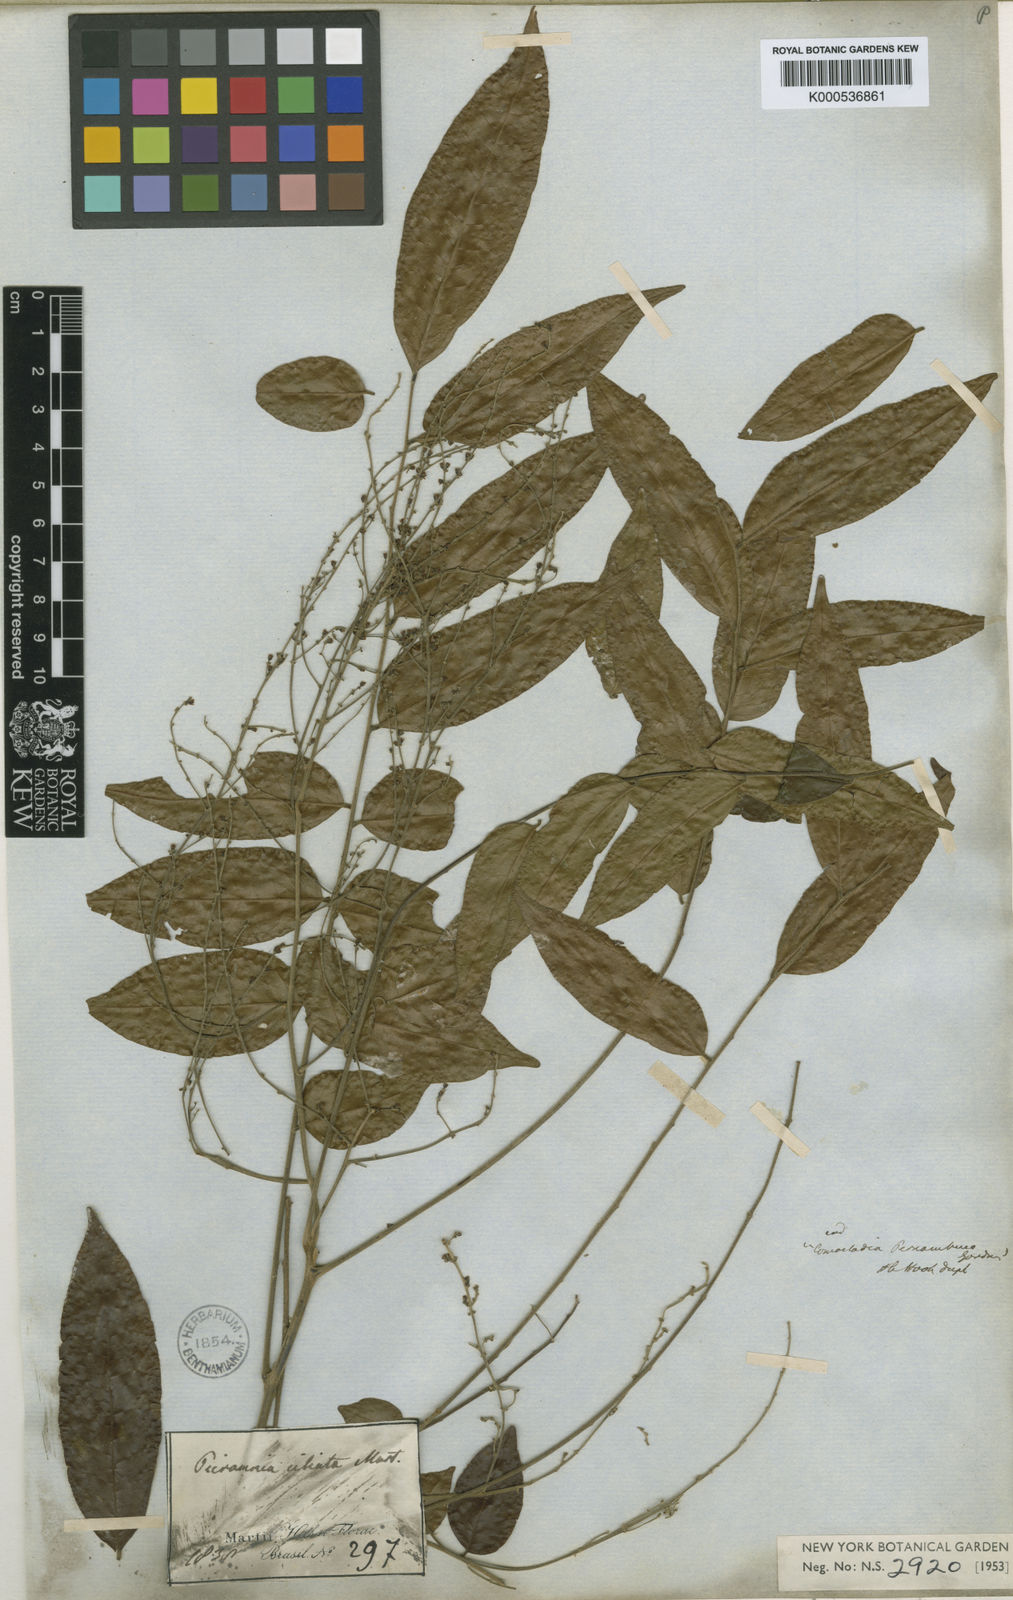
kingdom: Plantae
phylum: Tracheophyta
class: Magnoliopsida
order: Picramniales
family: Picramniaceae
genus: Picramnia
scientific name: Picramnia ciliata
